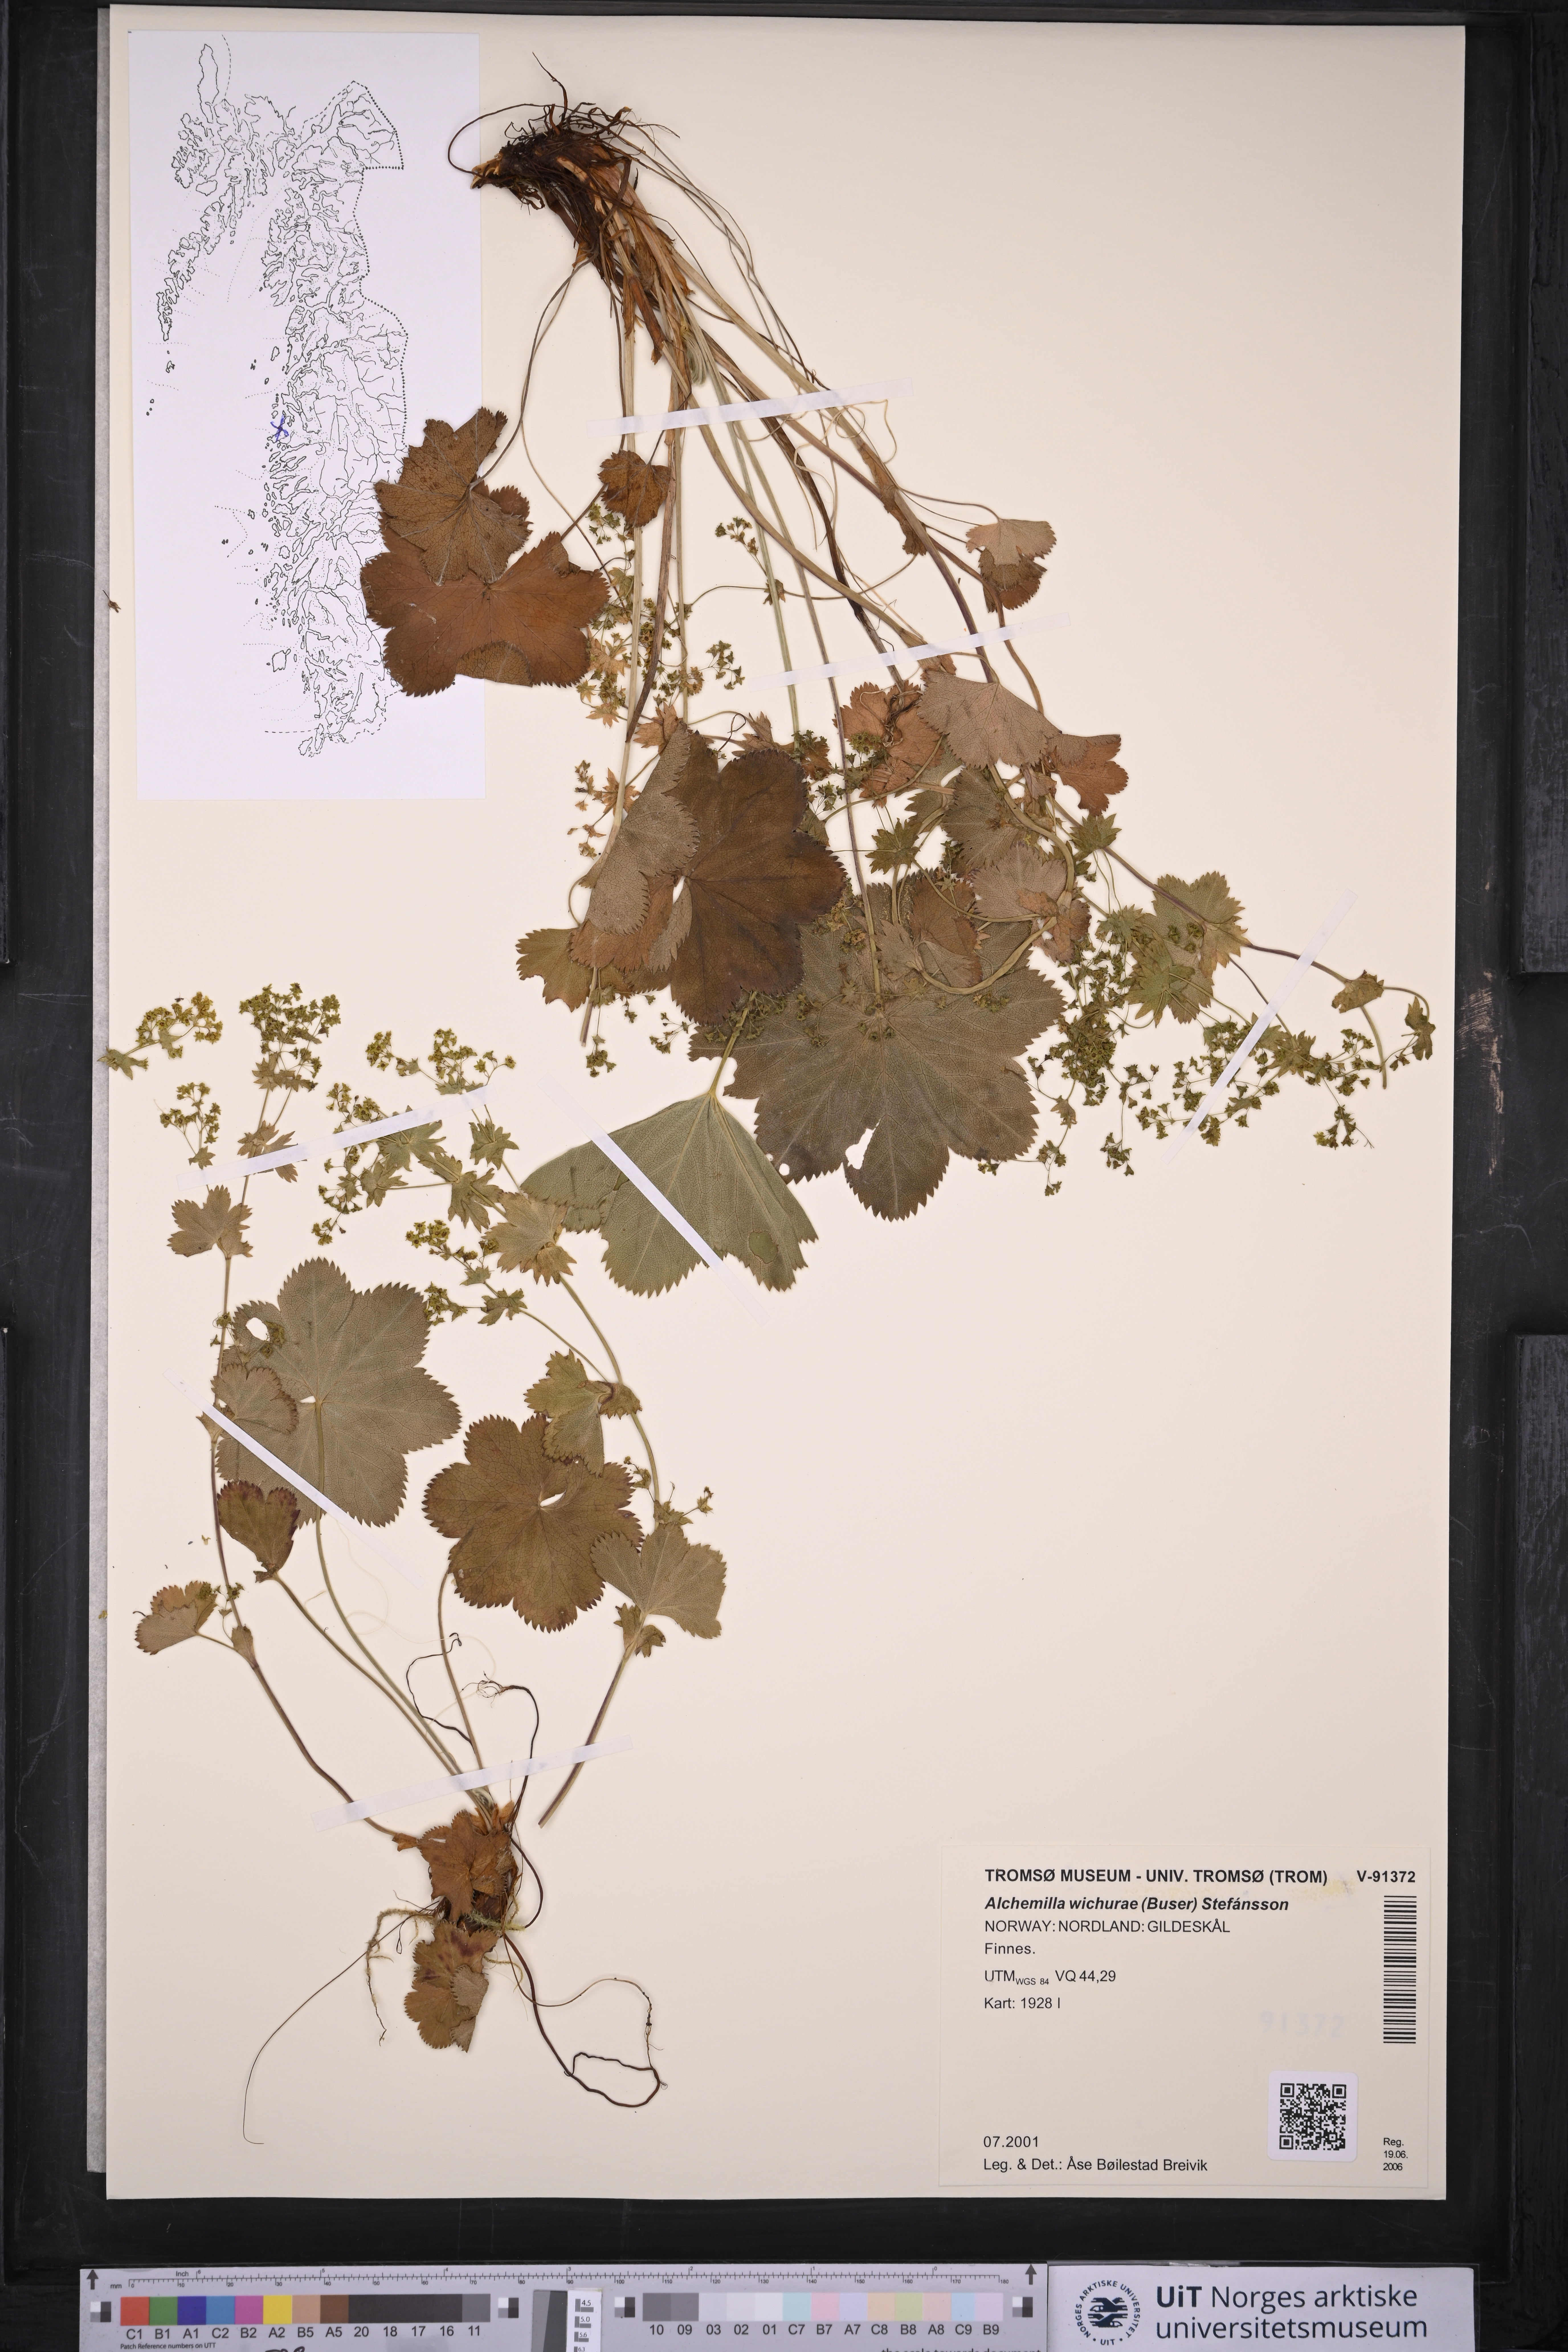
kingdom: Plantae
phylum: Tracheophyta
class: Magnoliopsida
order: Rosales
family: Rosaceae
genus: Alchemilla
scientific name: Alchemilla wichurae
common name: Rock lady's mantle
